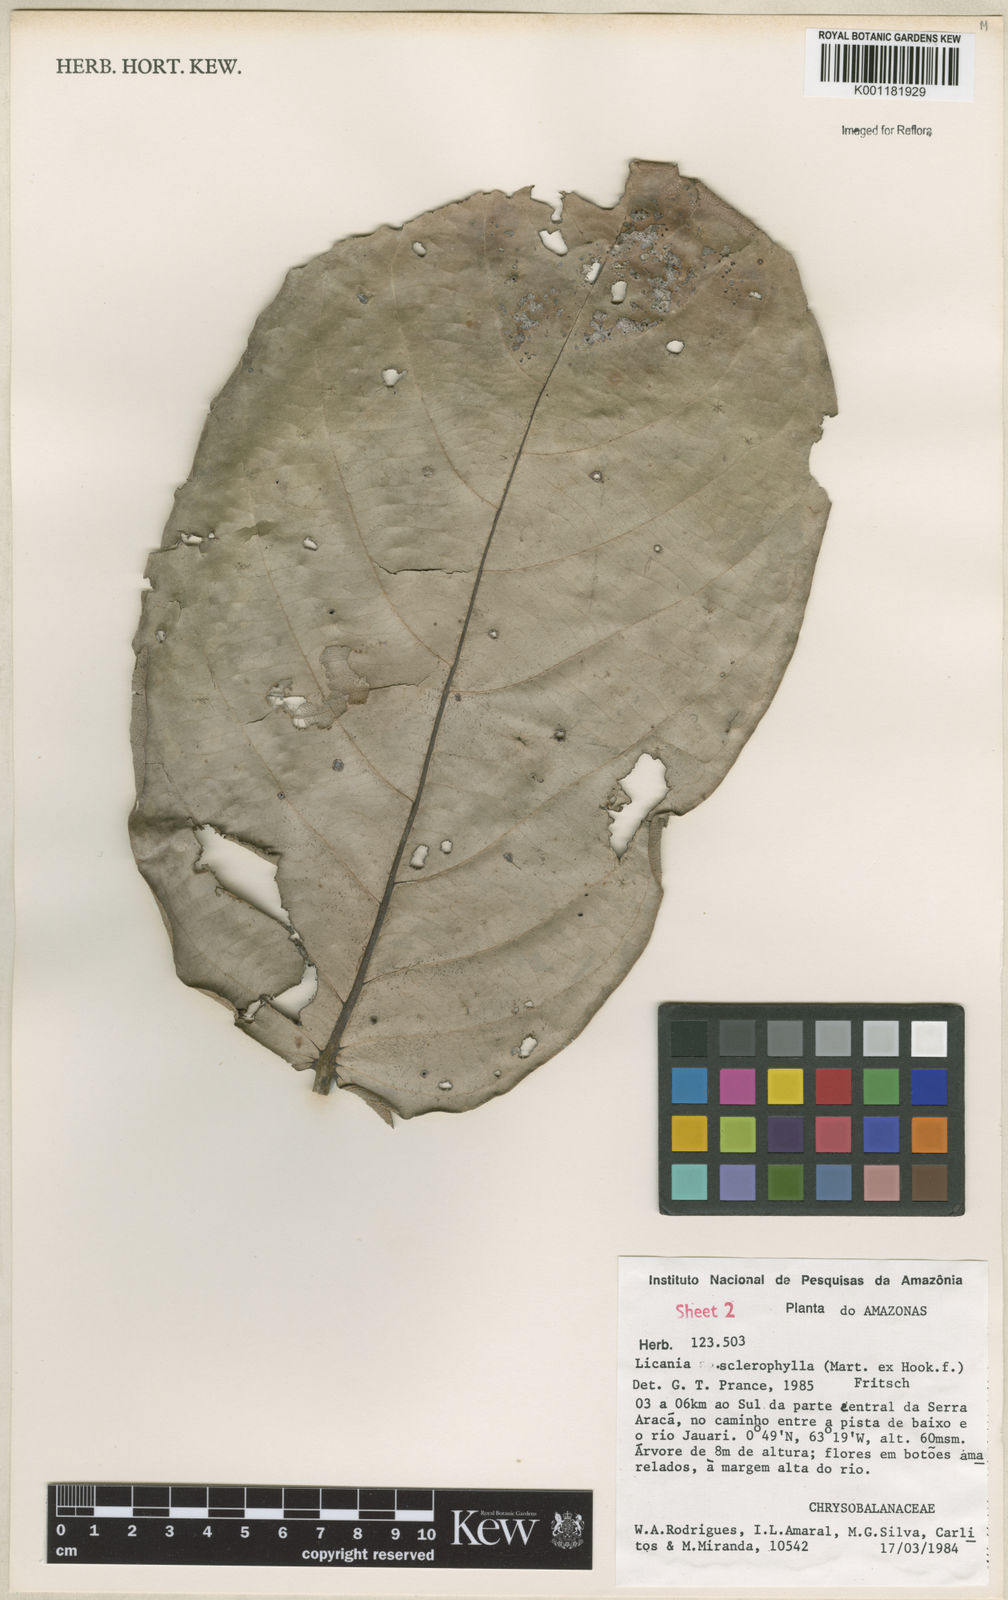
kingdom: Plantae
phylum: Tracheophyta
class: Magnoliopsida
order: Malpighiales
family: Chrysobalanaceae
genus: Leptobalanus
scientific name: Leptobalanus sclerophyllus
